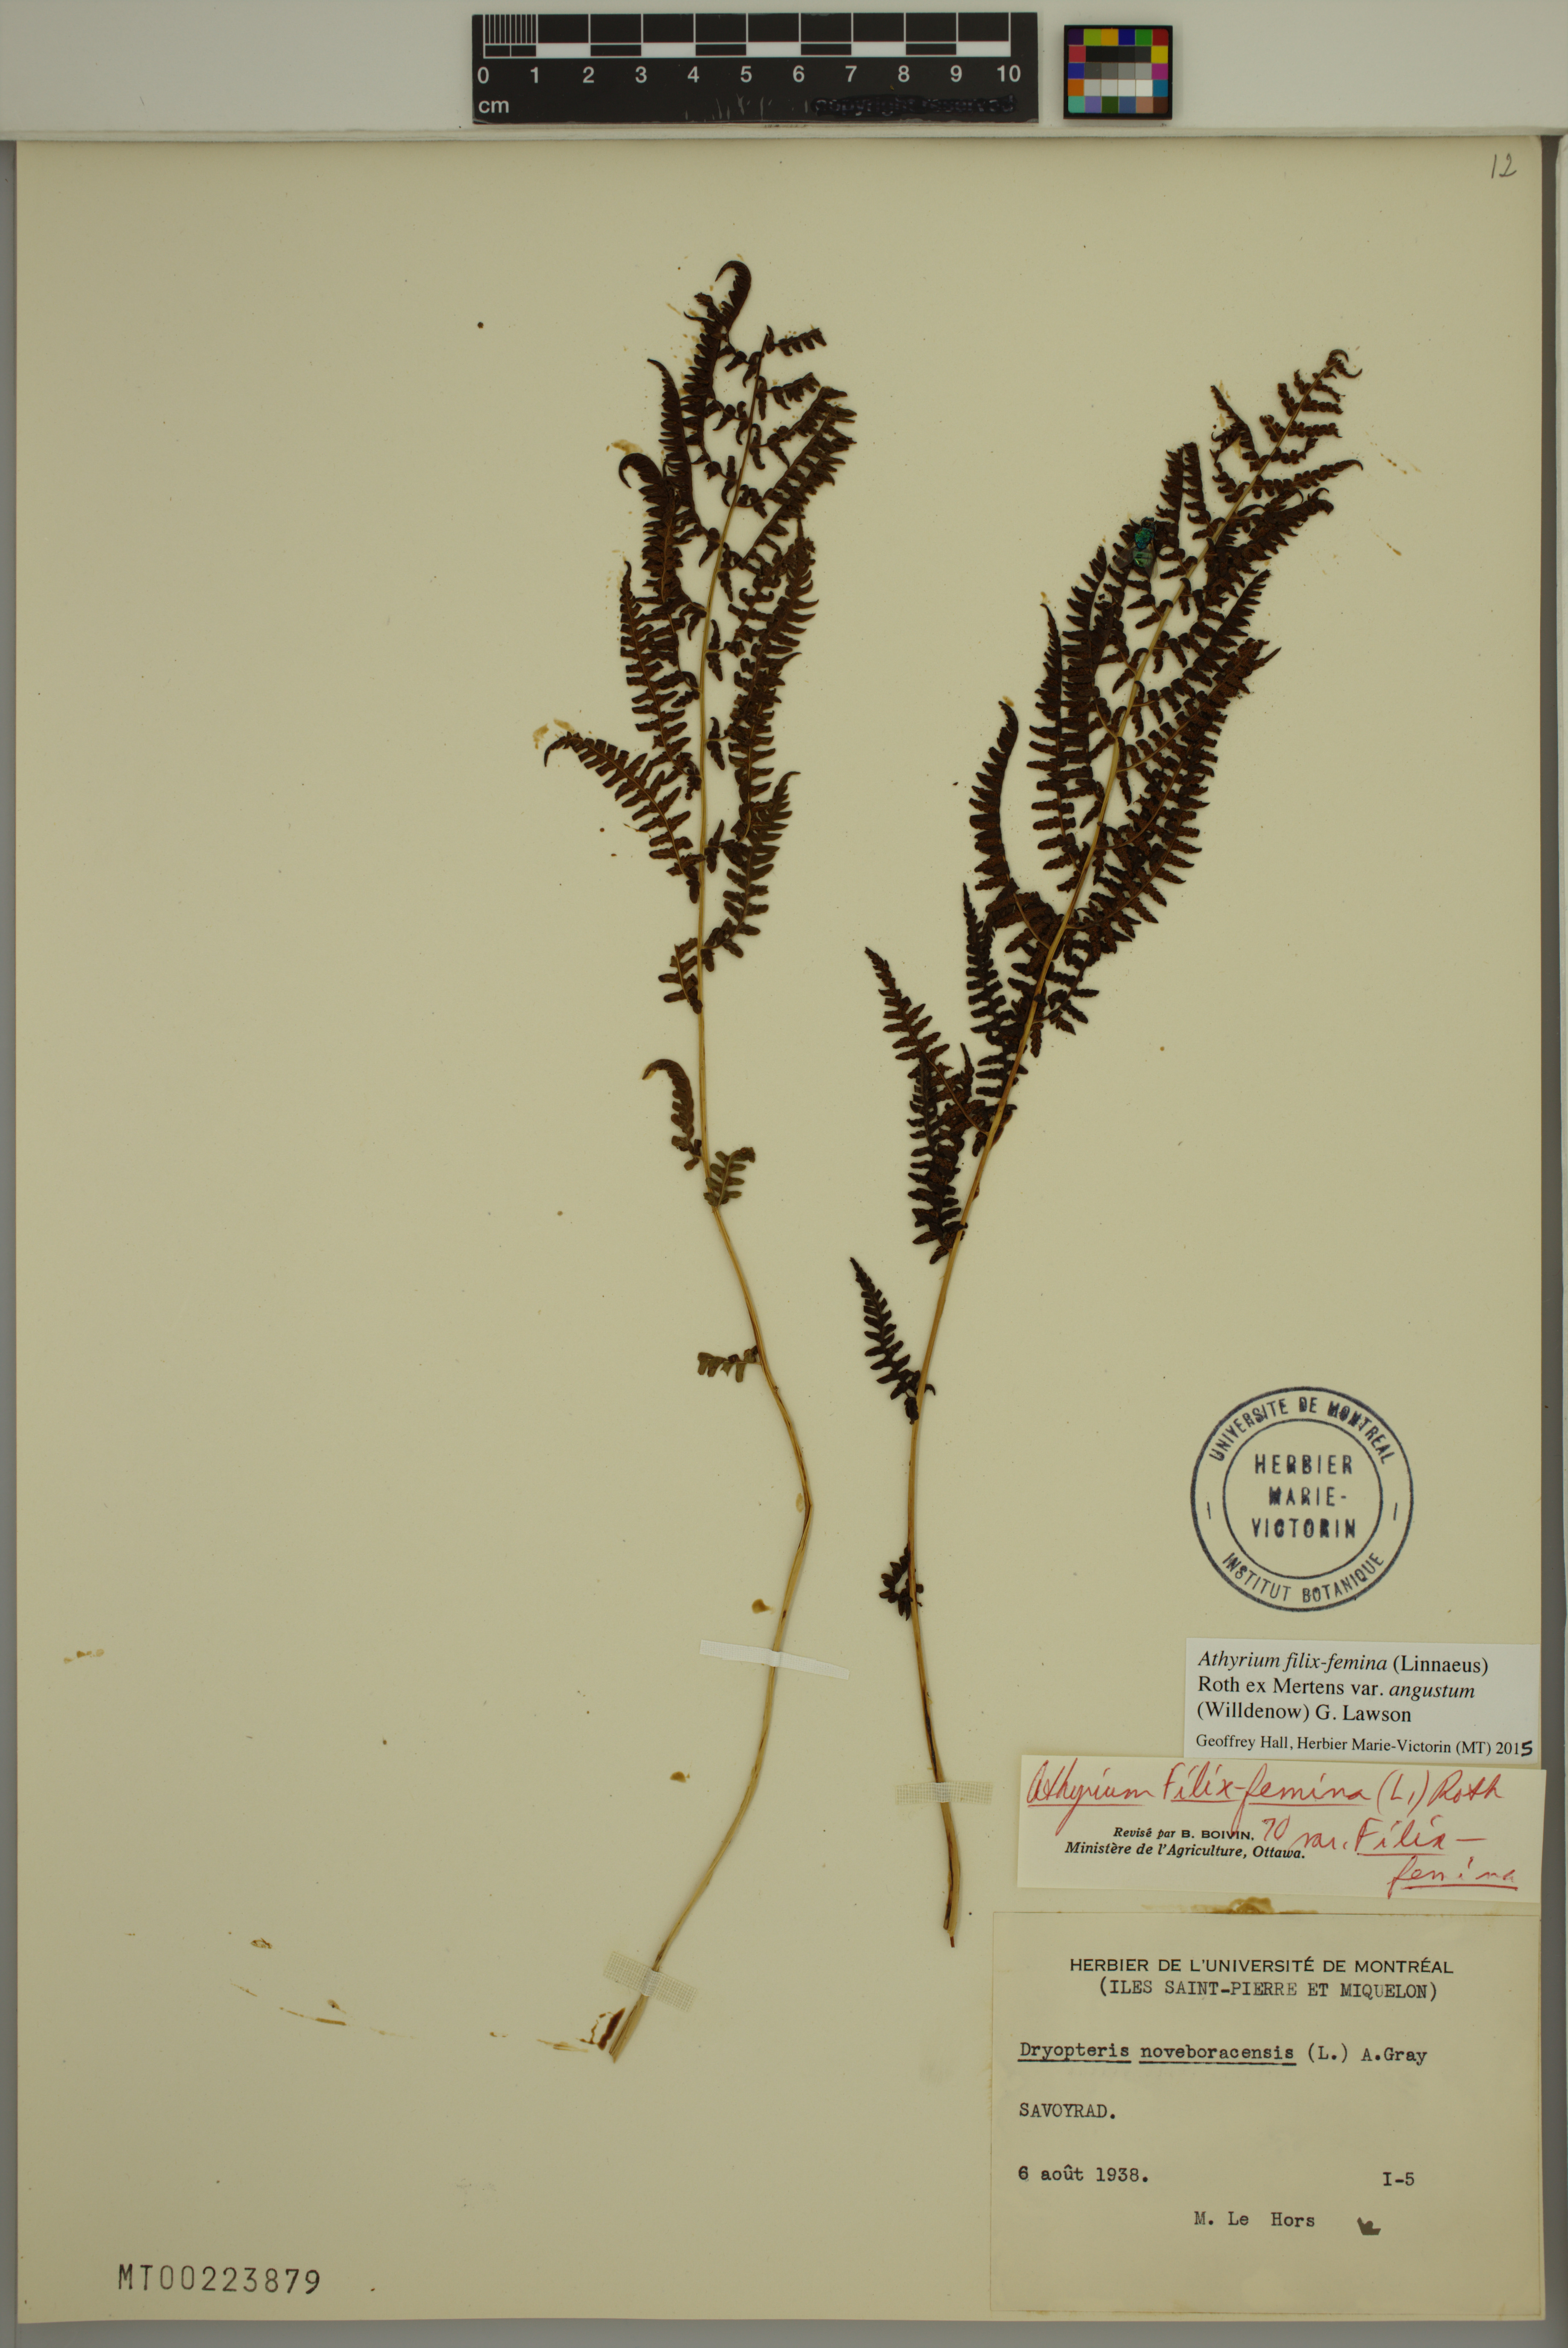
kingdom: Plantae
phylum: Tracheophyta
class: Polypodiopsida
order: Polypodiales
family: Athyriaceae
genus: Athyrium
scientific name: Athyrium angustum
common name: Northern lady fern
